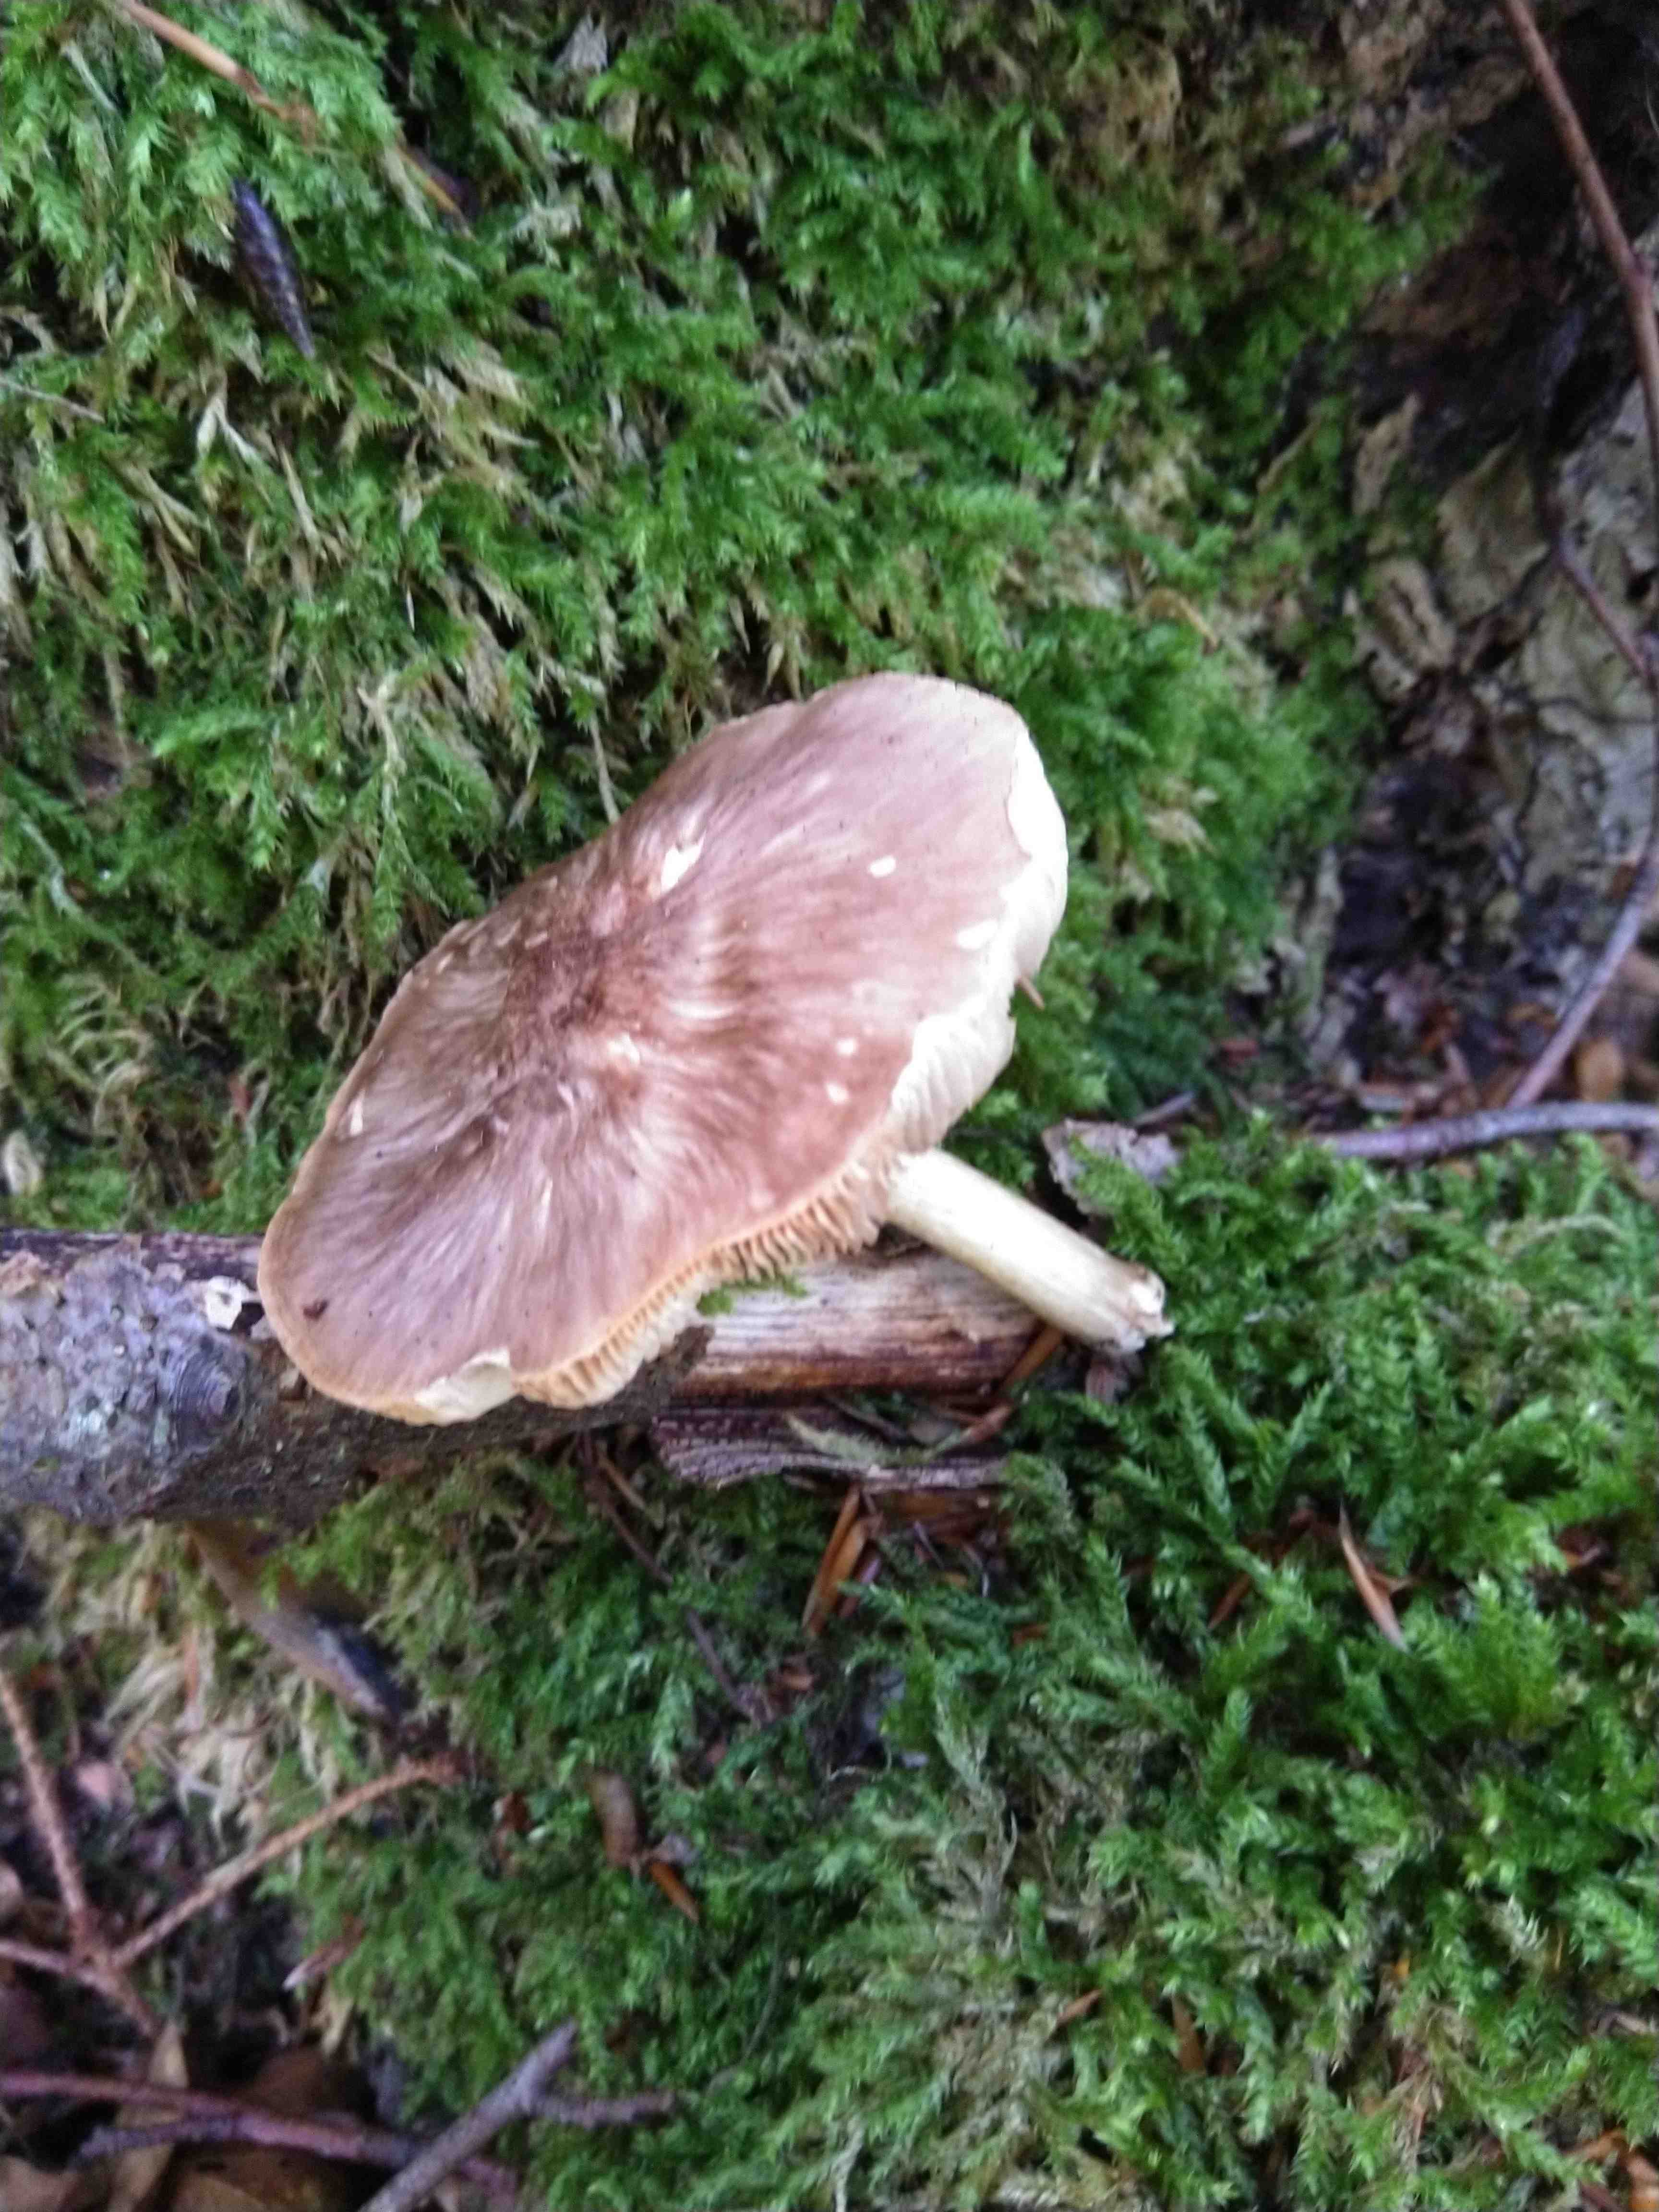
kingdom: Fungi
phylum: Basidiomycota
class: Agaricomycetes
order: Agaricales
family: Pluteaceae
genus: Pluteus
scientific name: Pluteus cervinus
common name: sodfarvet skærmhat
